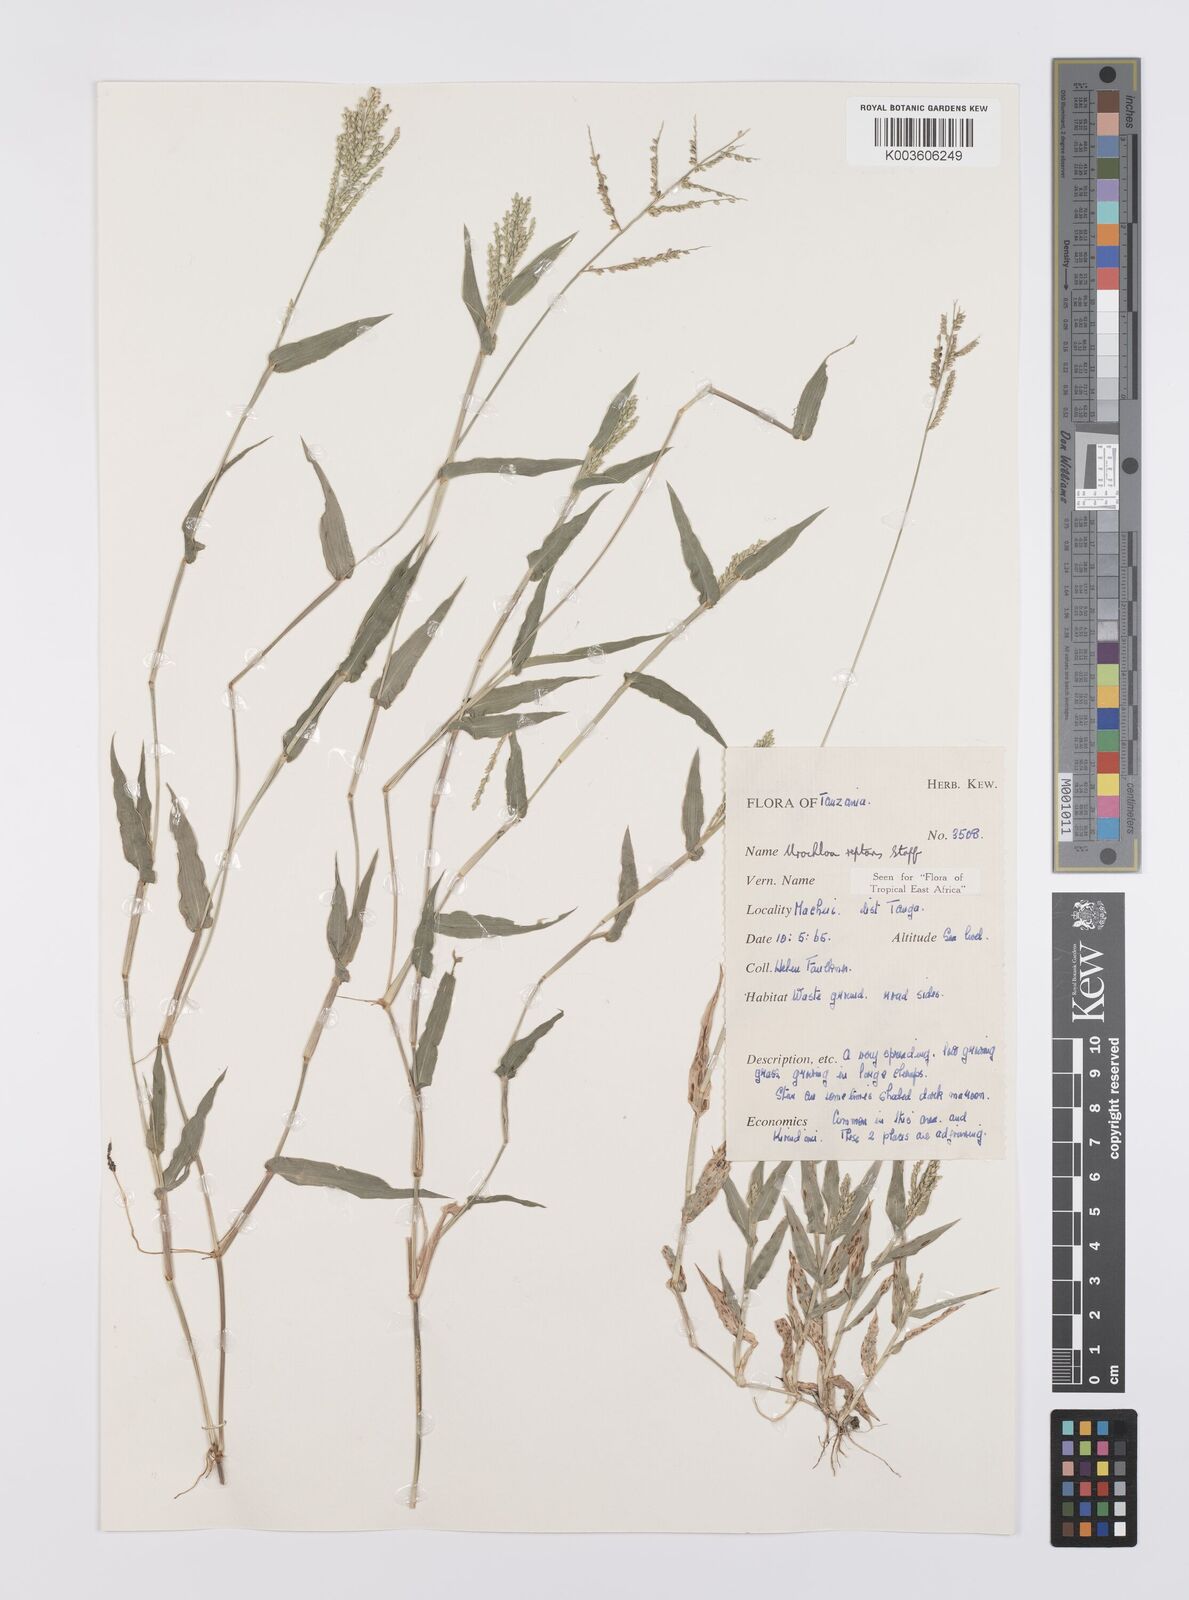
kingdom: Plantae
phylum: Tracheophyta
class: Liliopsida
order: Poales
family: Poaceae
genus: Urochloa
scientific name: Urochloa reptans
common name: Sprawling signalgrass
